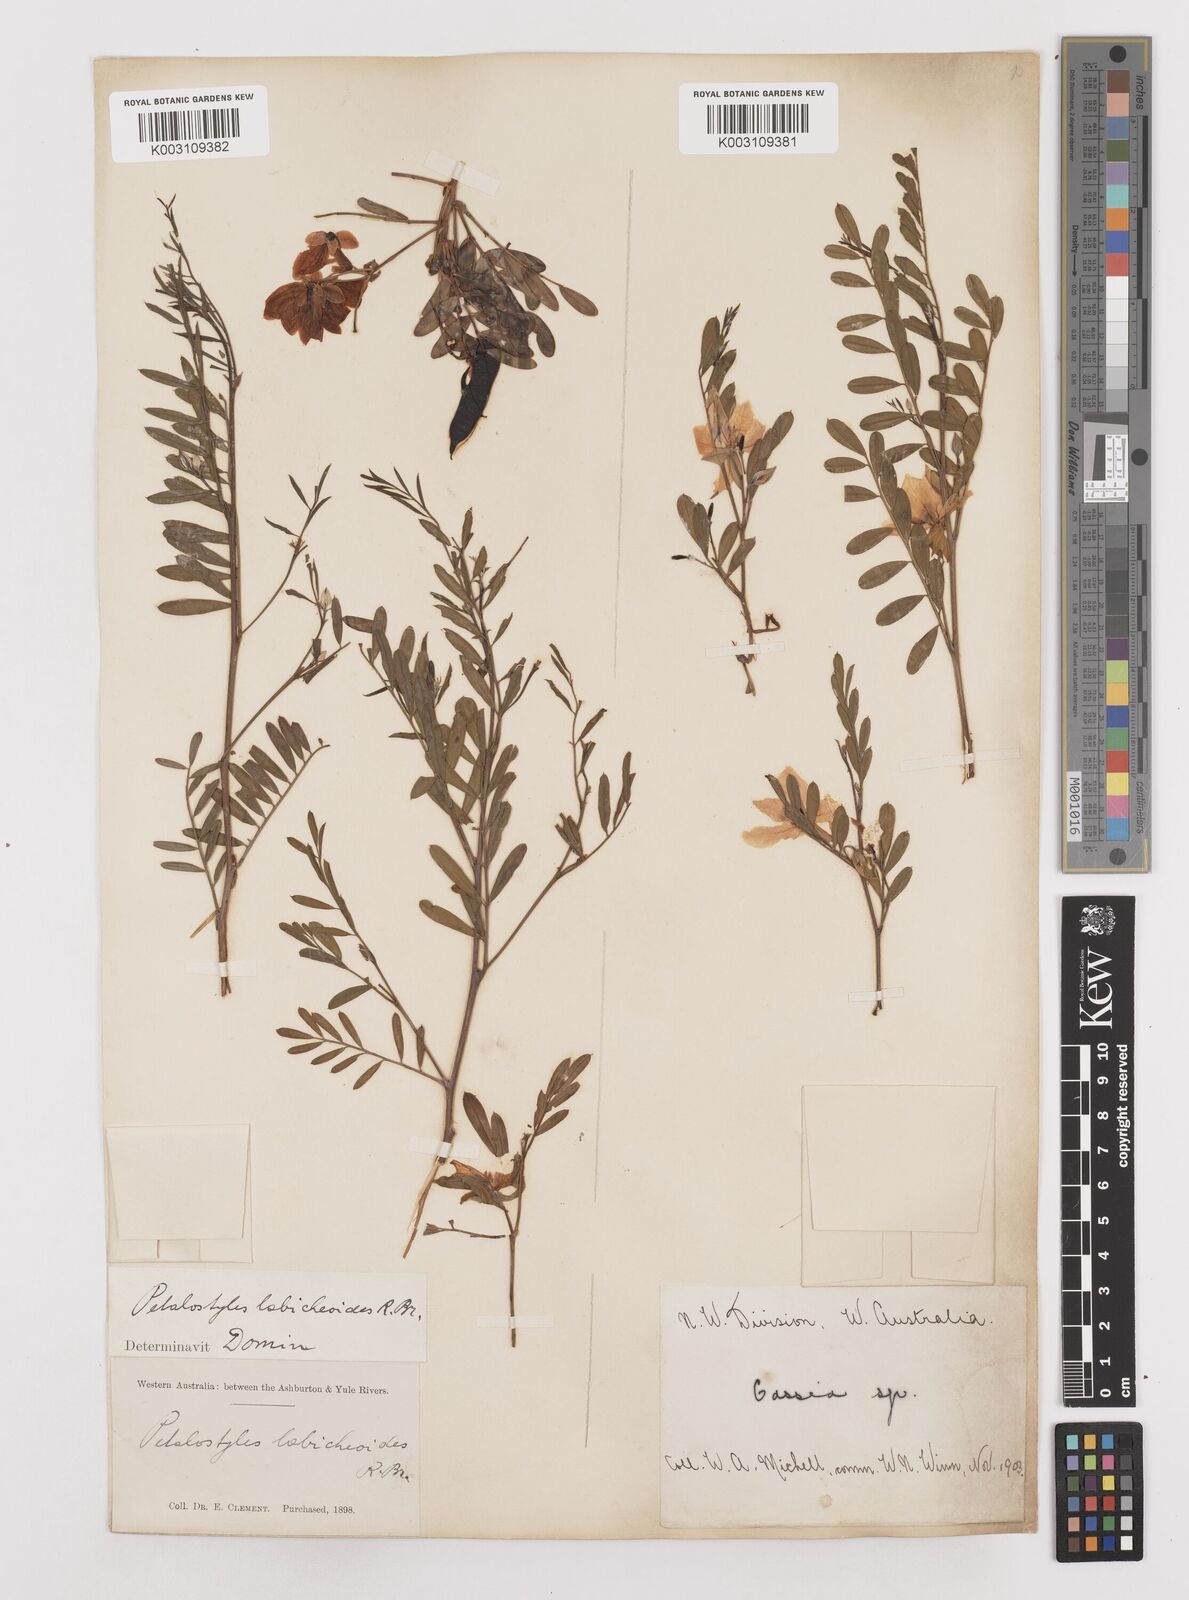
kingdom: Plantae
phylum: Tracheophyta
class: Magnoliopsida
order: Fabales
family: Fabaceae
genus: Petalostylis
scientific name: Petalostylis labicheoides
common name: Butterfly bush
